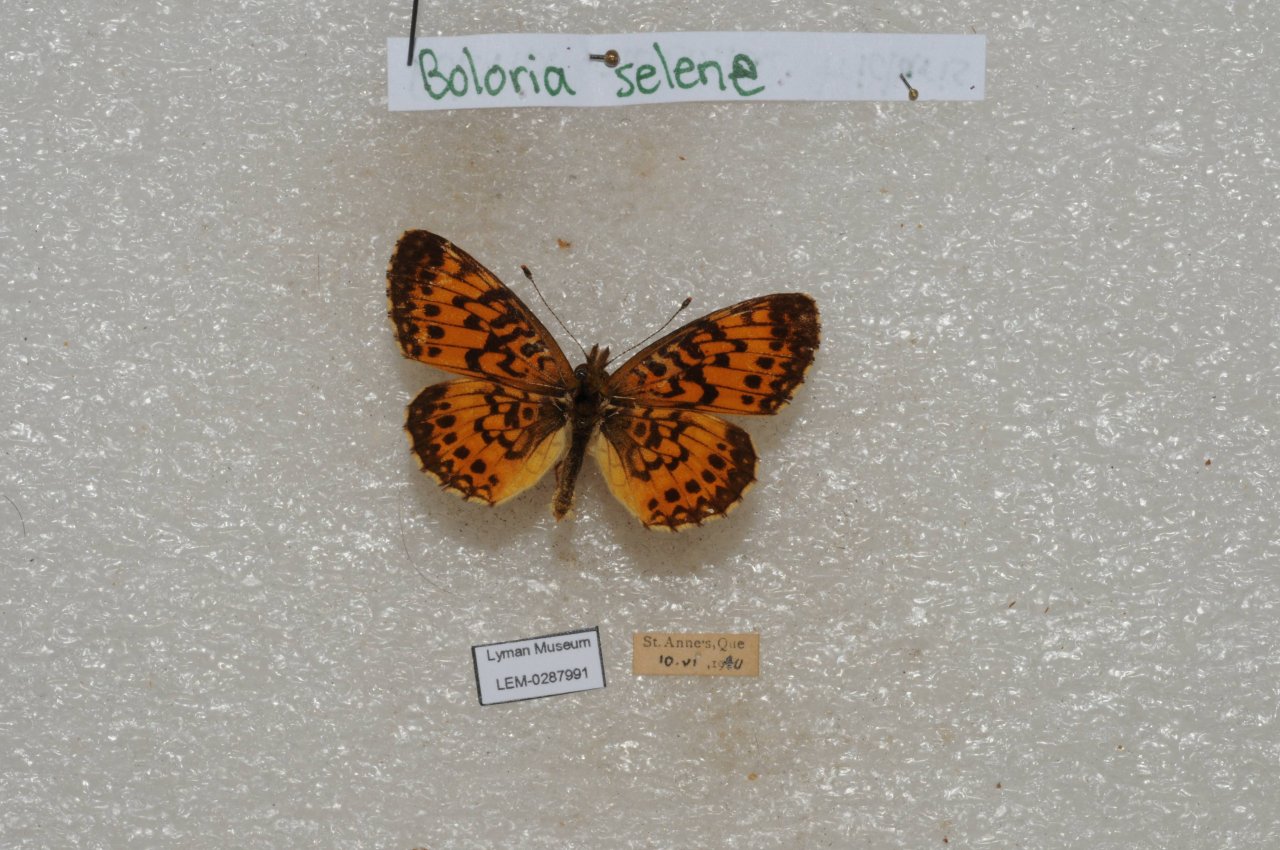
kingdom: Animalia
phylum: Arthropoda
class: Insecta
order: Lepidoptera
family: Nymphalidae
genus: Boloria
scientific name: Boloria selene
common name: Silver-bordered Fritillary
